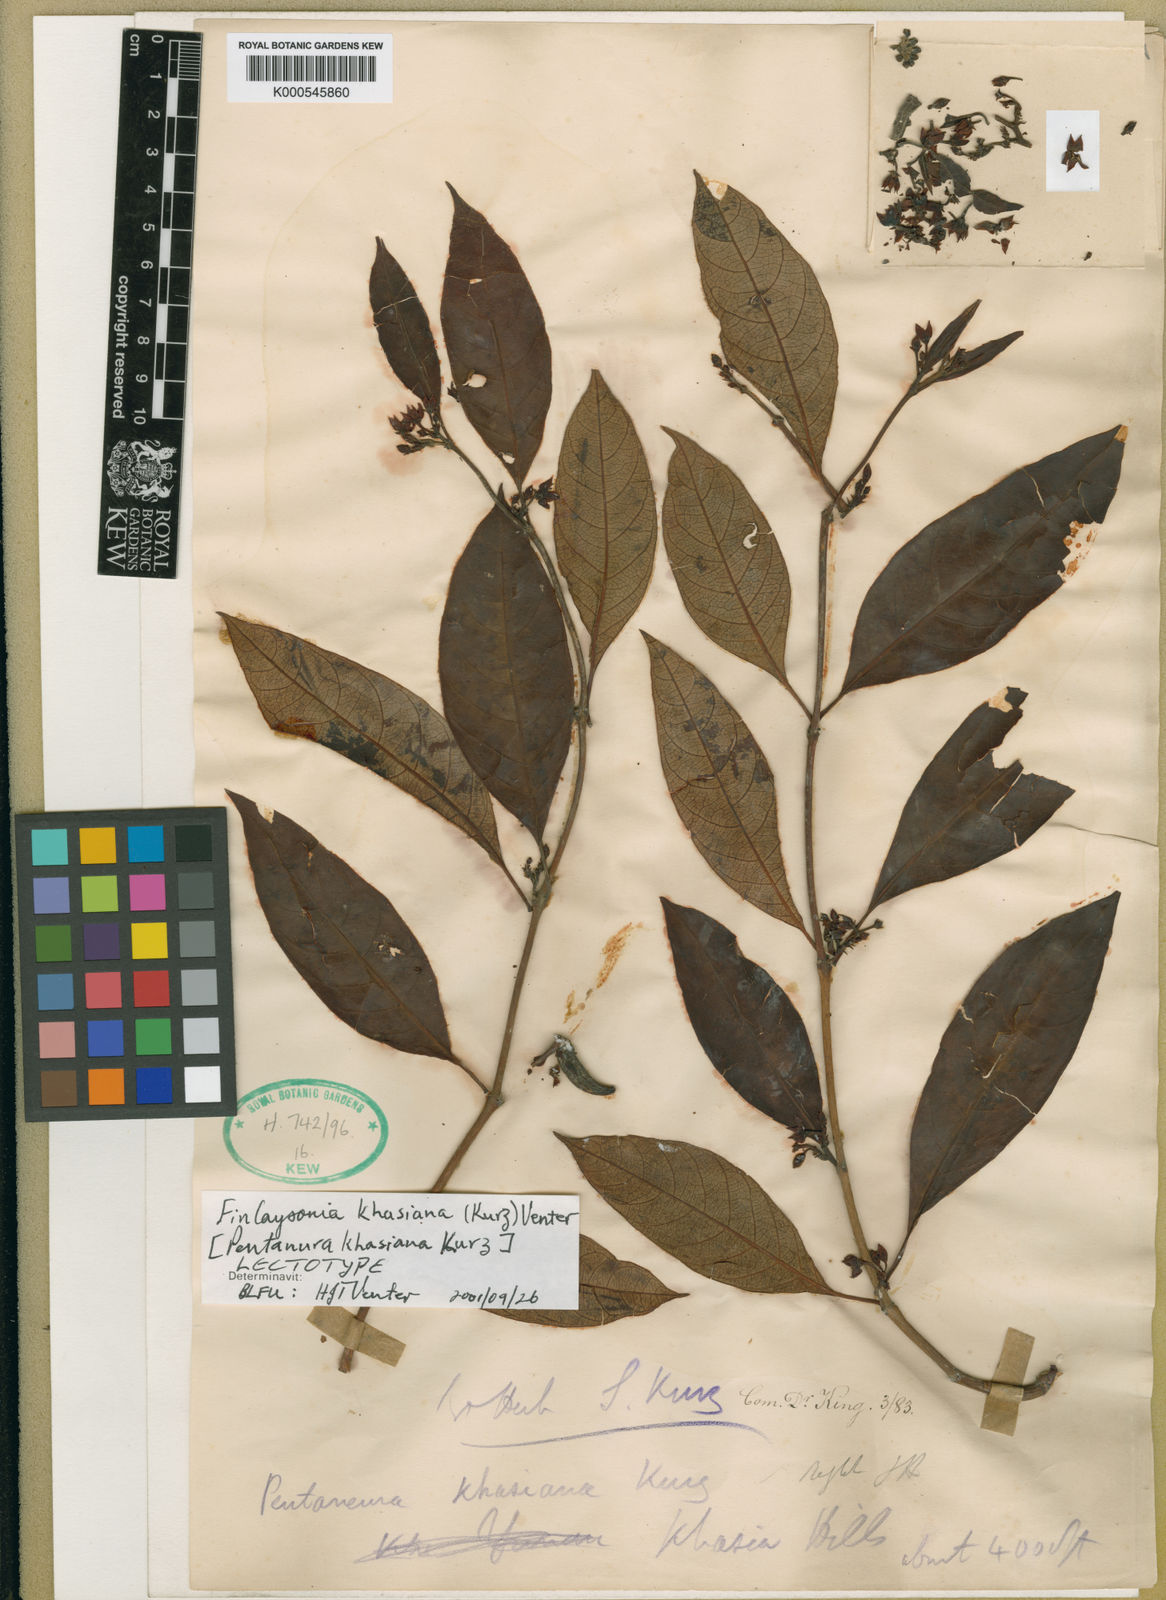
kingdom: Plantae
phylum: Tracheophyta
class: Magnoliopsida
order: Gentianales
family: Apocynaceae
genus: Decalepis
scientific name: Decalepis khasiana
